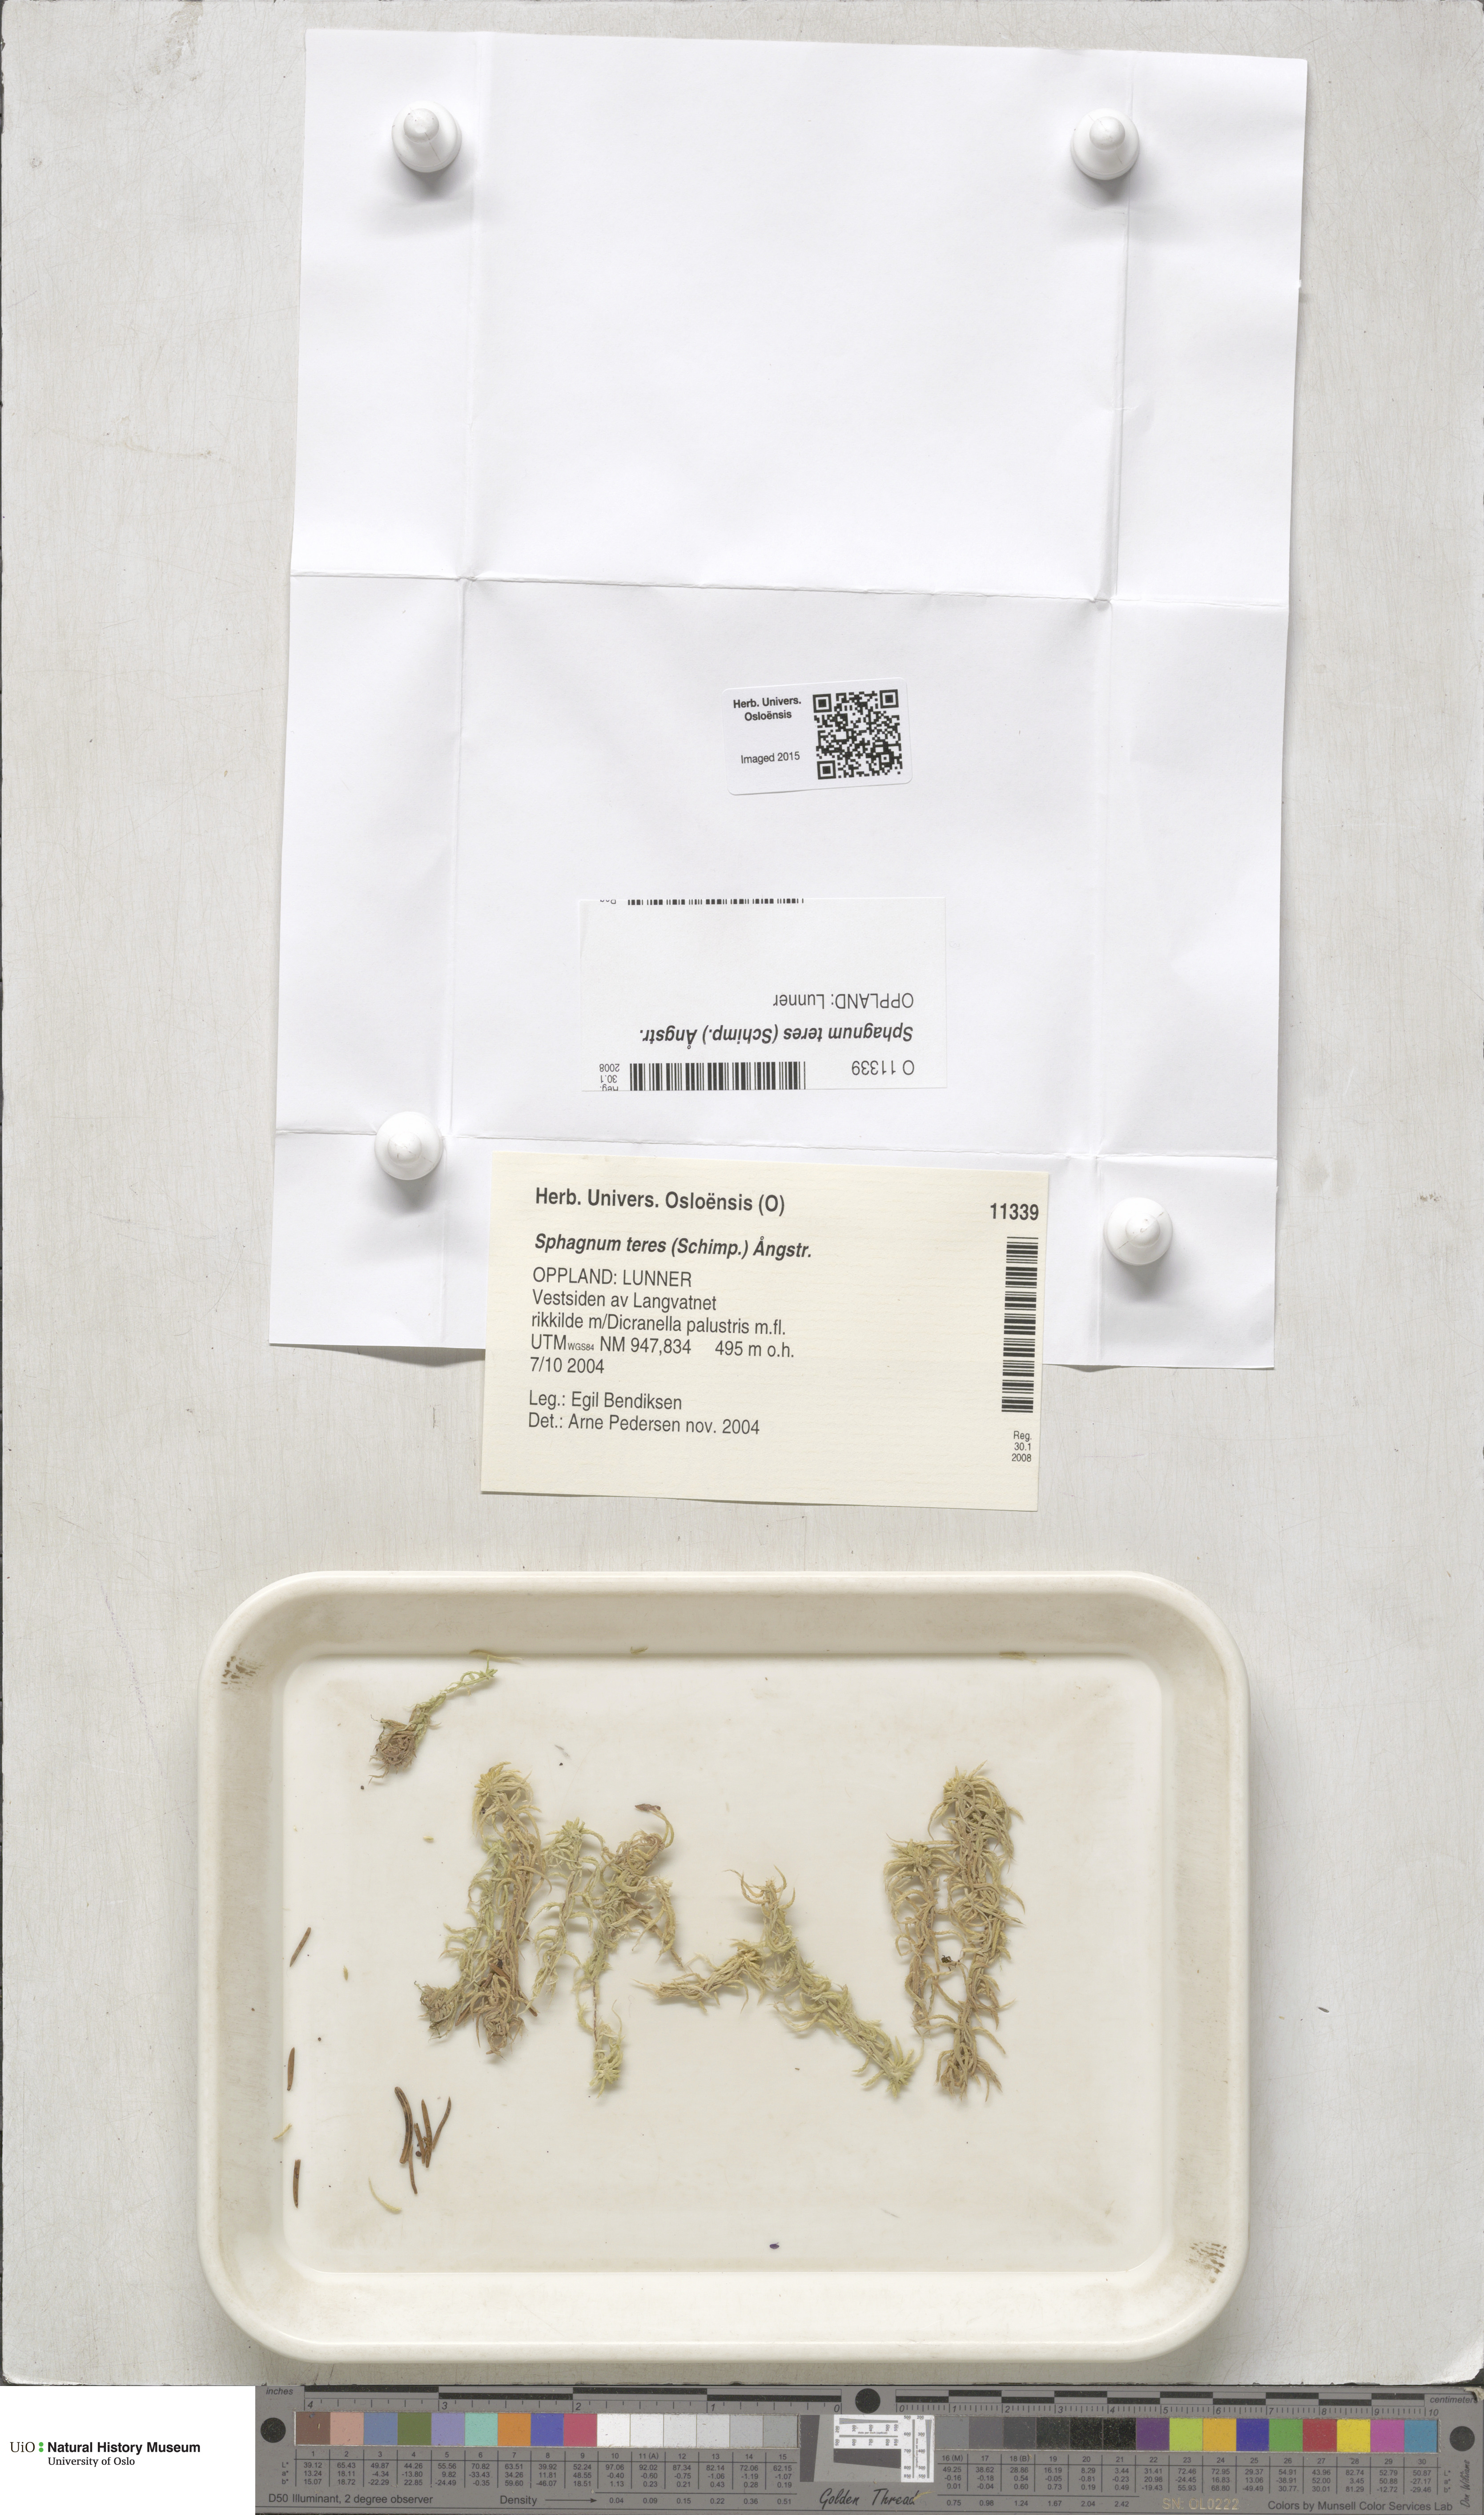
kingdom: Plantae
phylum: Bryophyta
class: Sphagnopsida
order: Sphagnales
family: Sphagnaceae
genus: Sphagnum
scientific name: Sphagnum teres
